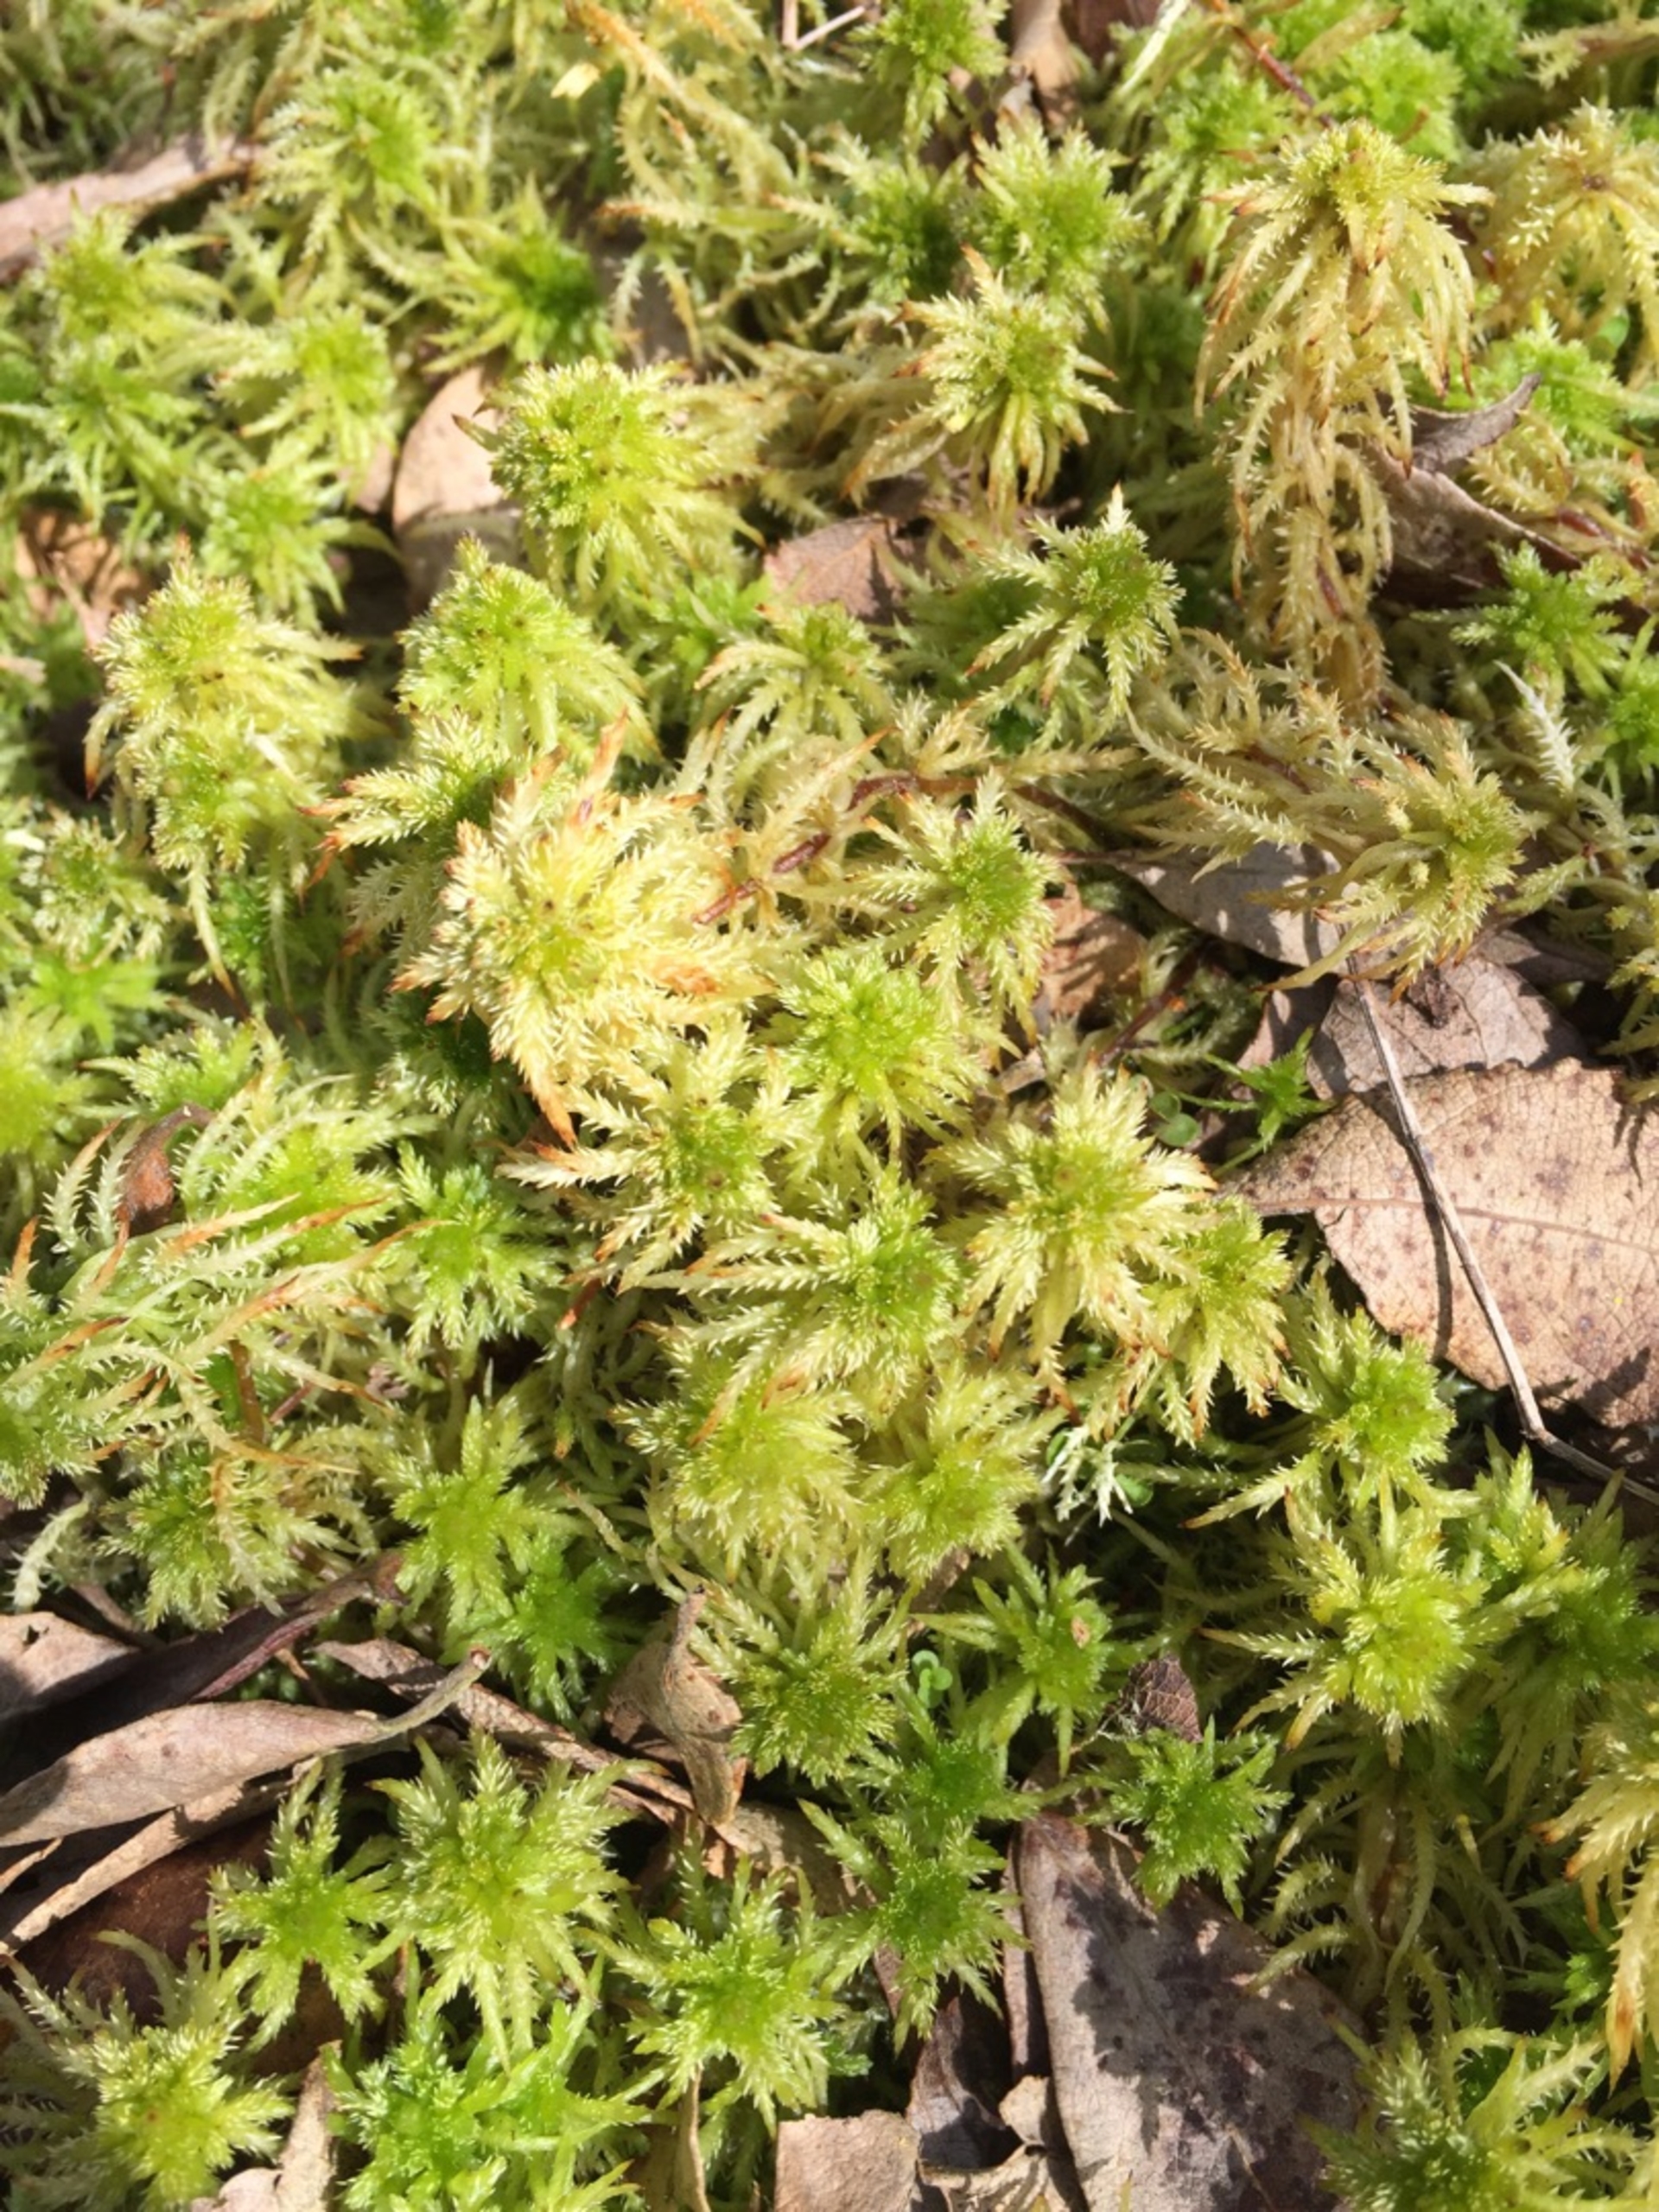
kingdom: Plantae
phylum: Bryophyta
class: Sphagnopsida
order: Sphagnales
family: Sphagnaceae
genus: Sphagnum
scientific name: Sphagnum squarrosum
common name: Udspærret tørvemos
